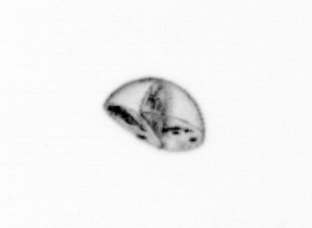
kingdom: Chromista
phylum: Ochrophyta
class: Bacillariophyceae
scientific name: Bacillariophyceae
